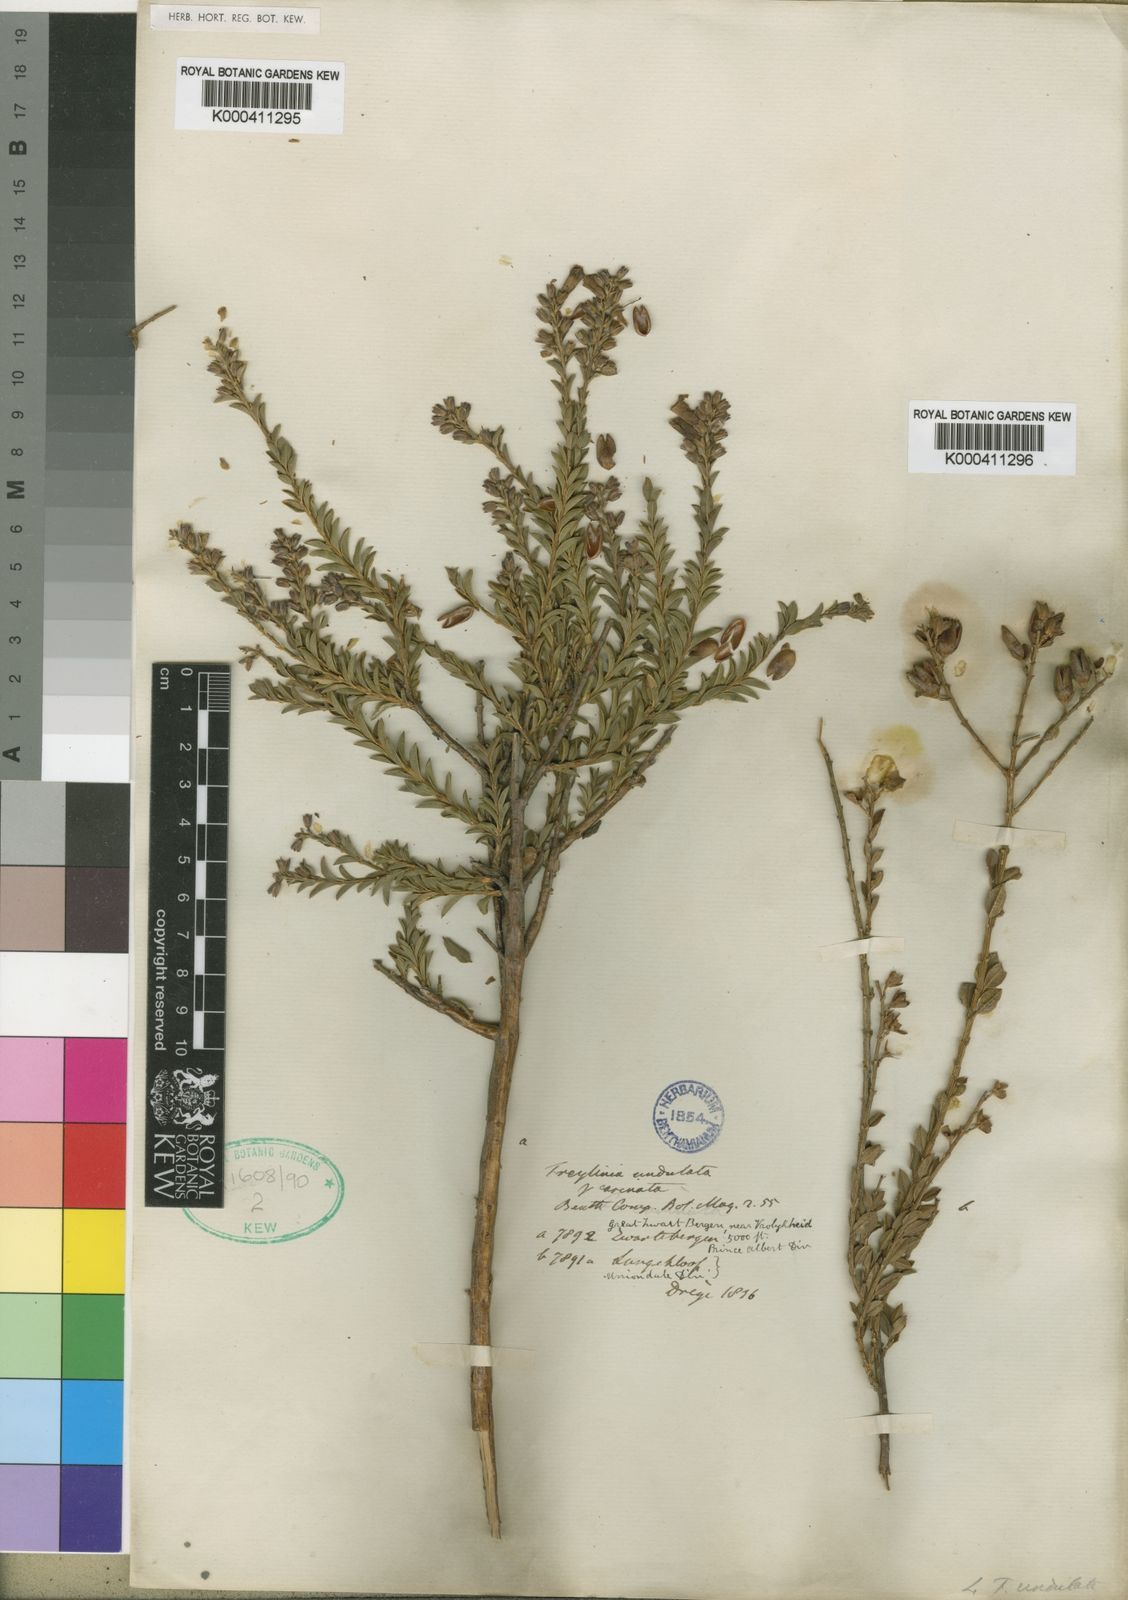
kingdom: Plantae
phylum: Tracheophyta
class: Magnoliopsida
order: Lamiales
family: Scrophulariaceae
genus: Freylinia
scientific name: Freylinia undulata
